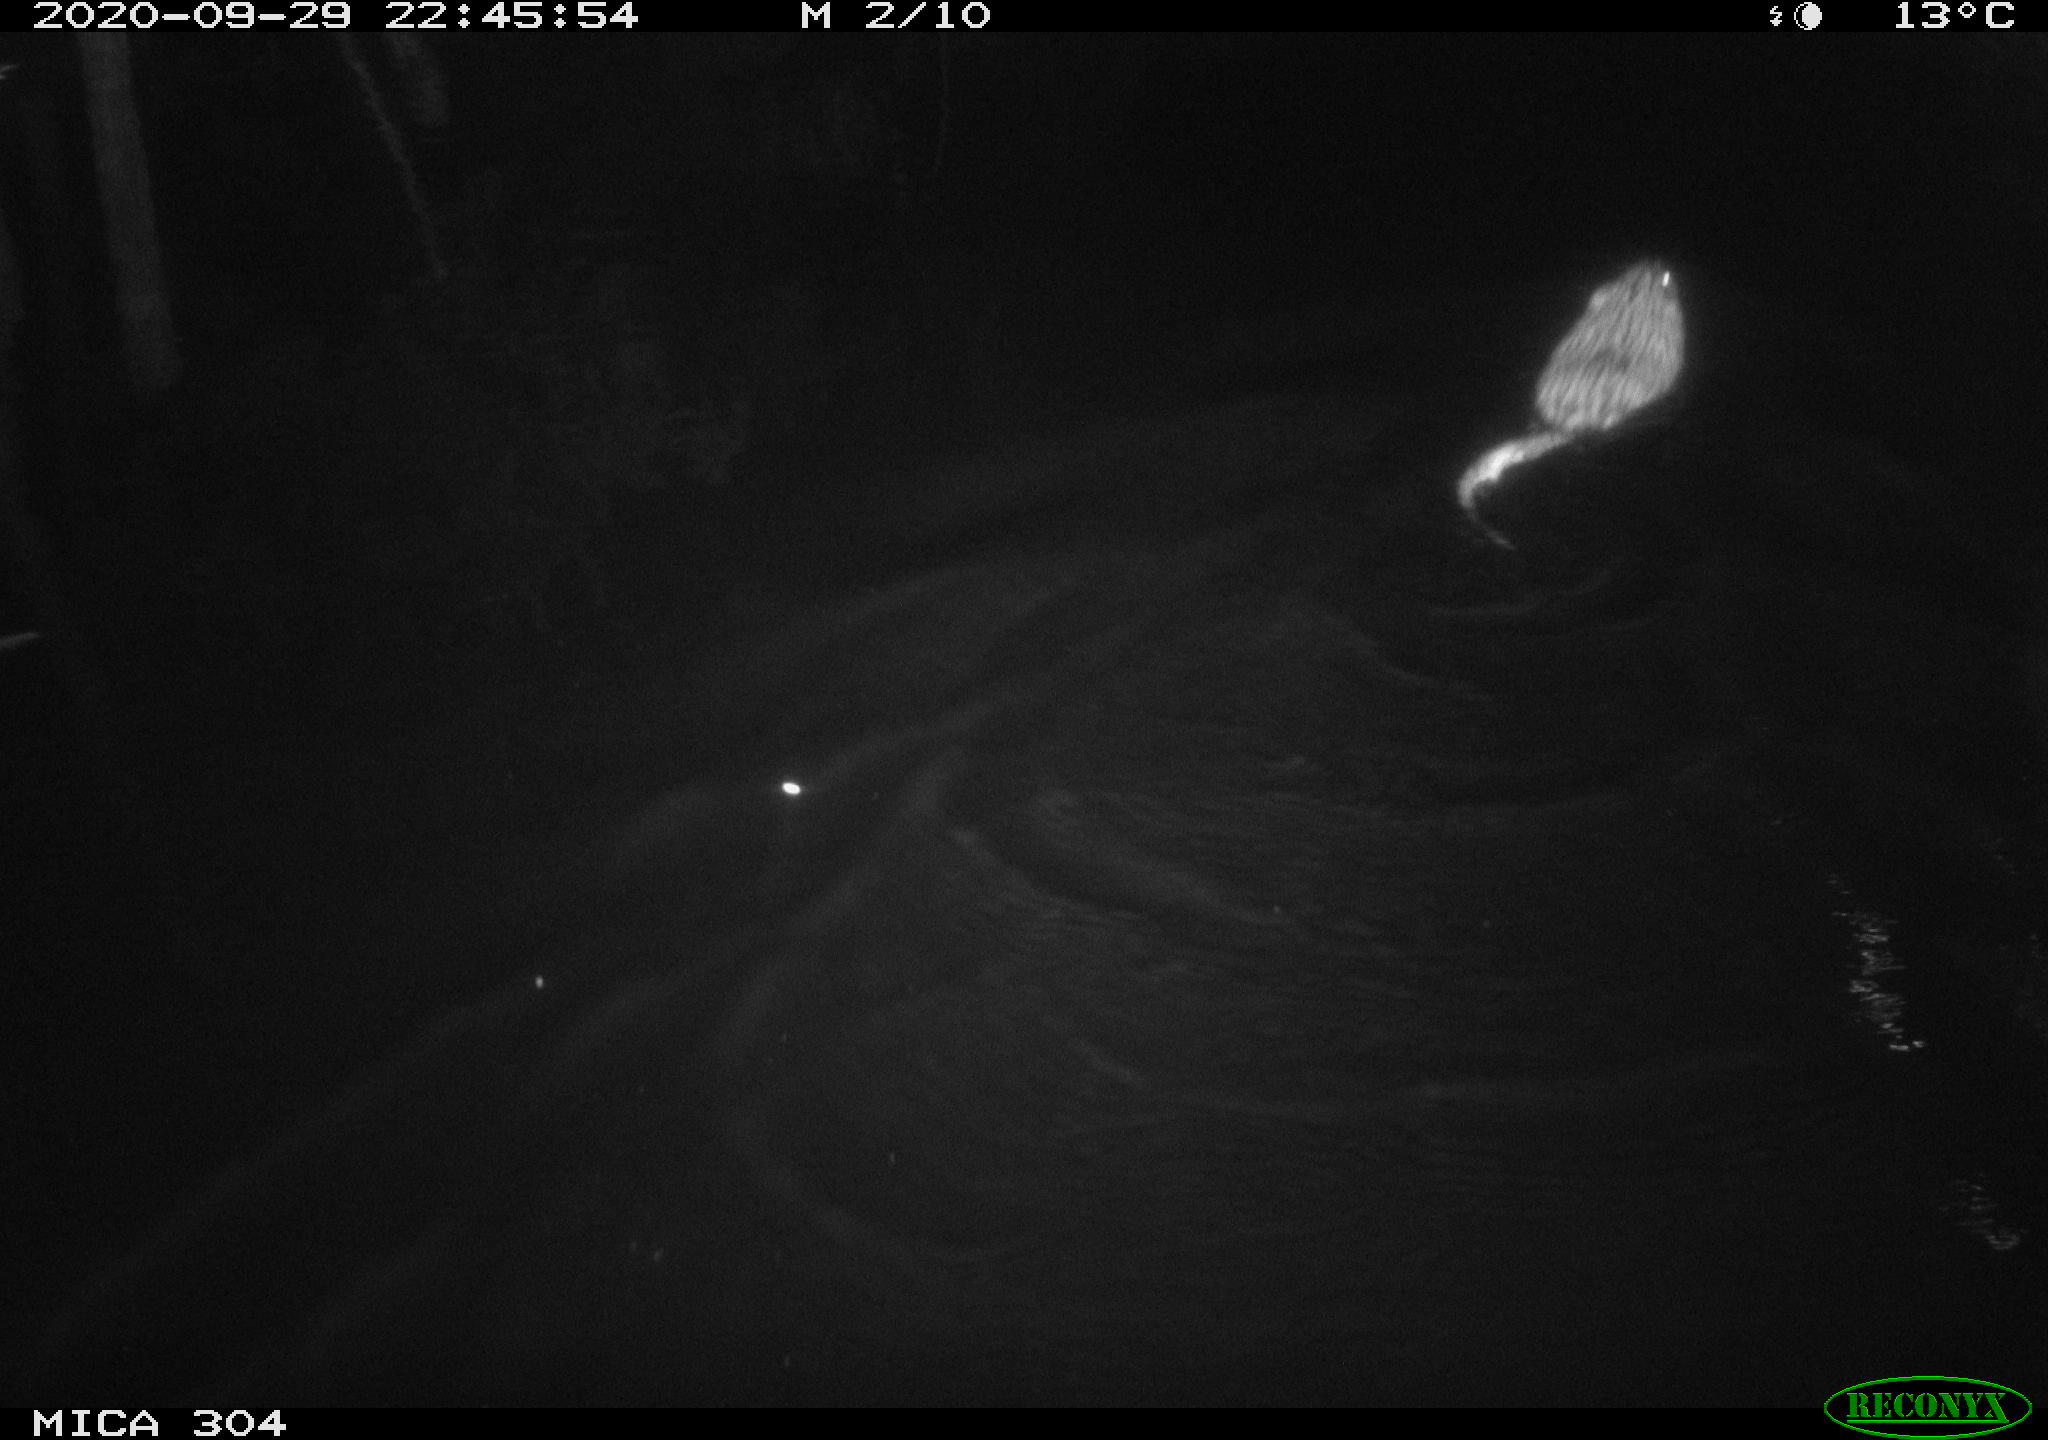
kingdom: Animalia
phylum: Chordata
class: Mammalia
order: Rodentia
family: Cricetidae
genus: Ondatra
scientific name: Ondatra zibethicus
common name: Muskrat
